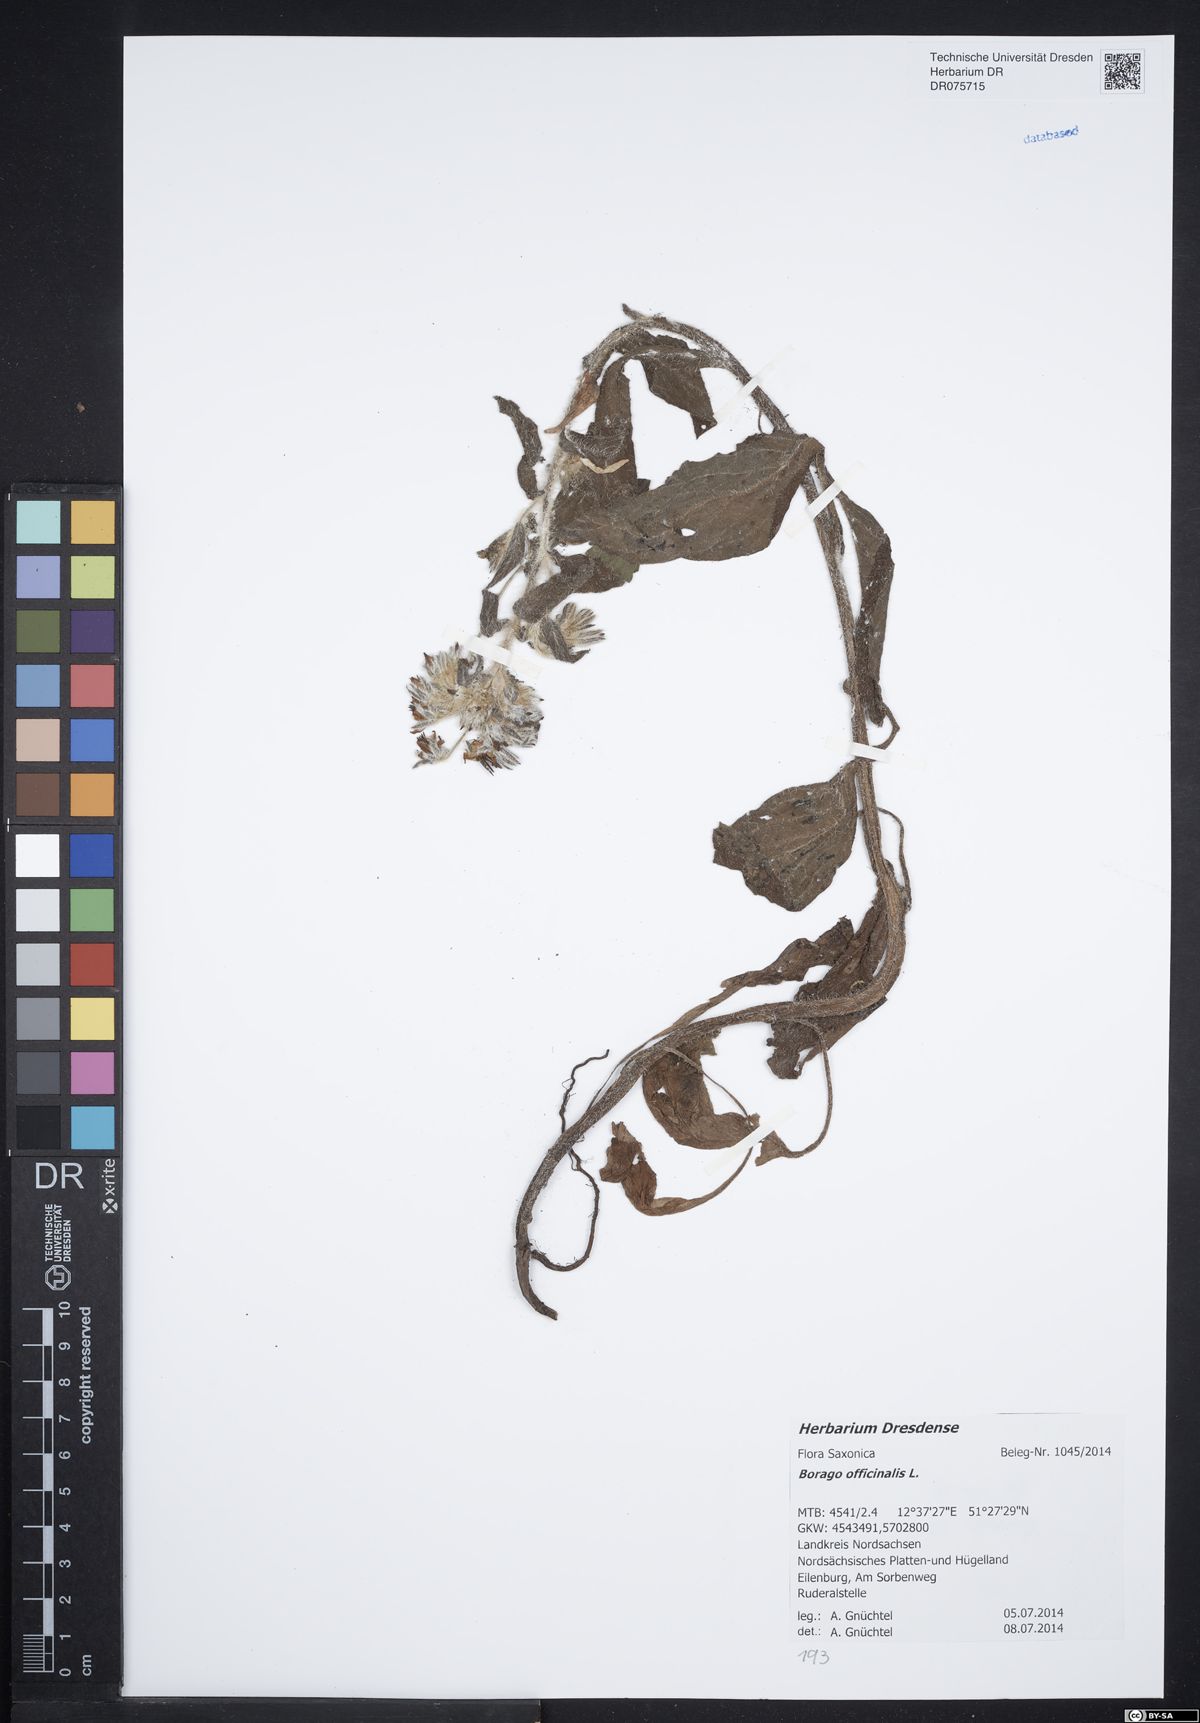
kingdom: Plantae
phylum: Tracheophyta
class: Magnoliopsida
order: Boraginales
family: Boraginaceae
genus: Borago
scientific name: Borago officinalis
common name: Borage
